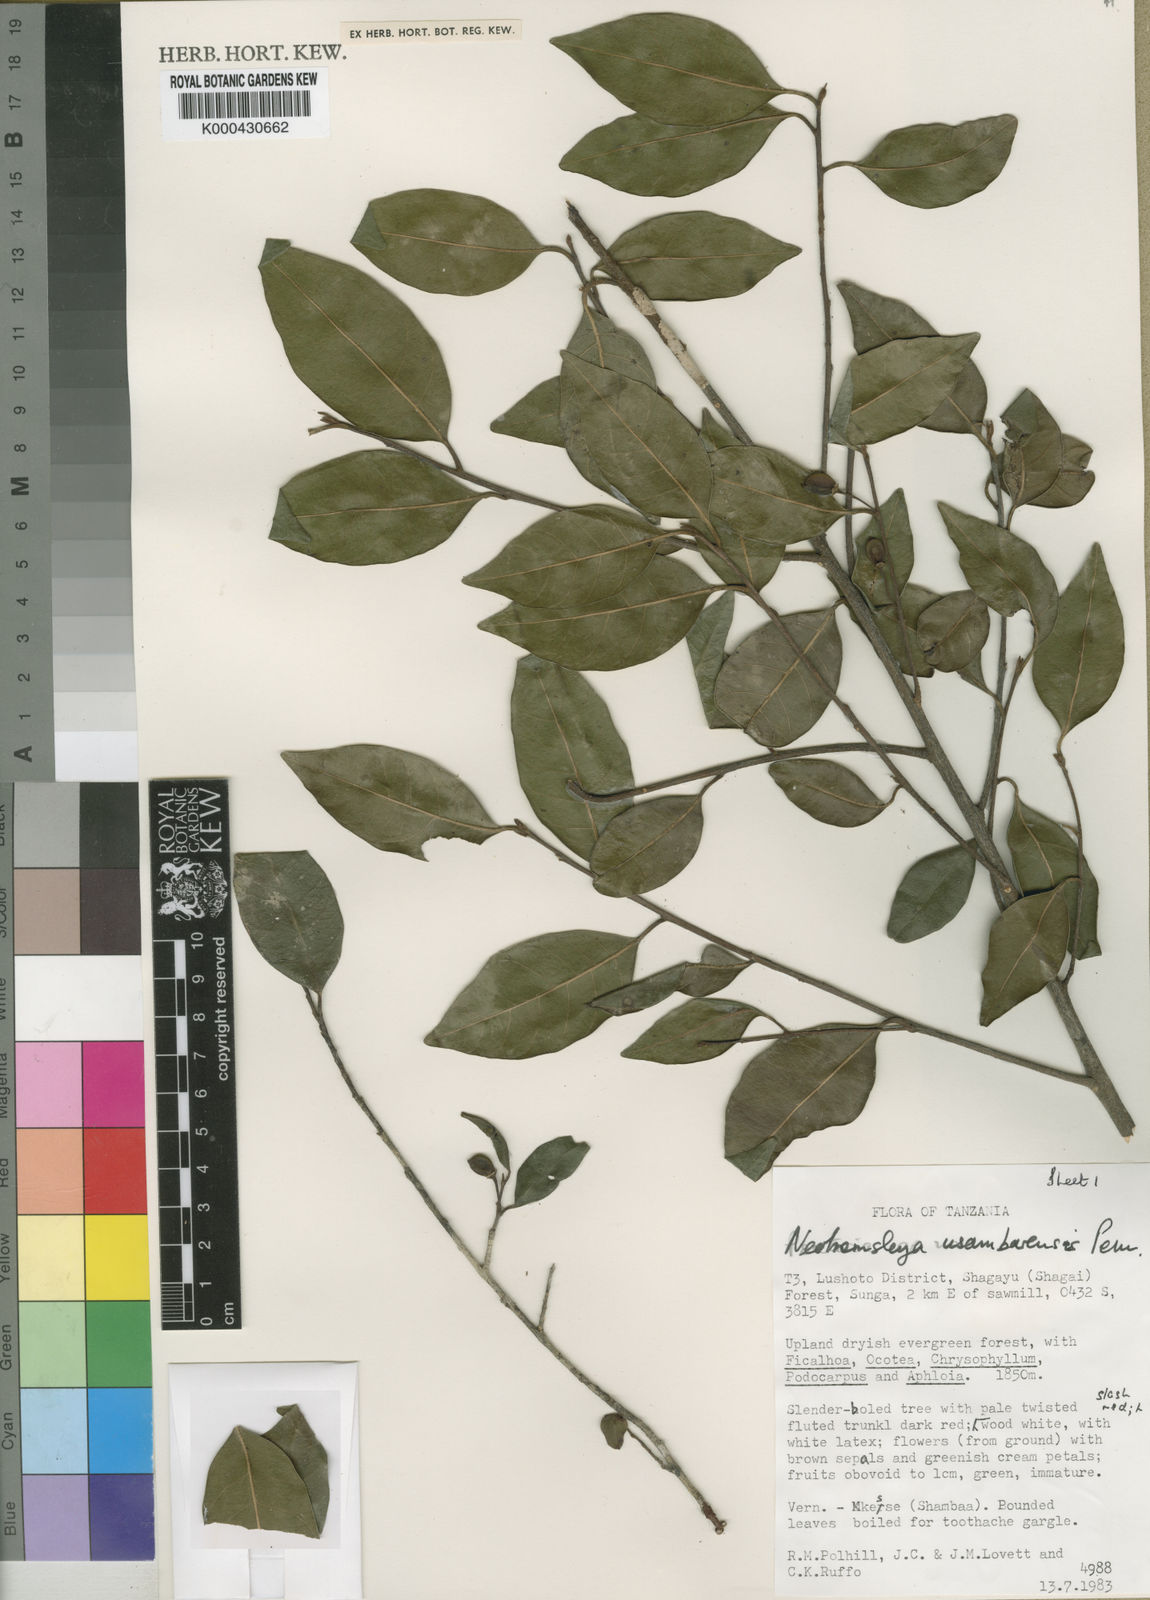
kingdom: Plantae
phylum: Tracheophyta
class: Magnoliopsida
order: Ericales
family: Sapotaceae
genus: Neohemsleya
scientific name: Neohemsleya usambarensis
